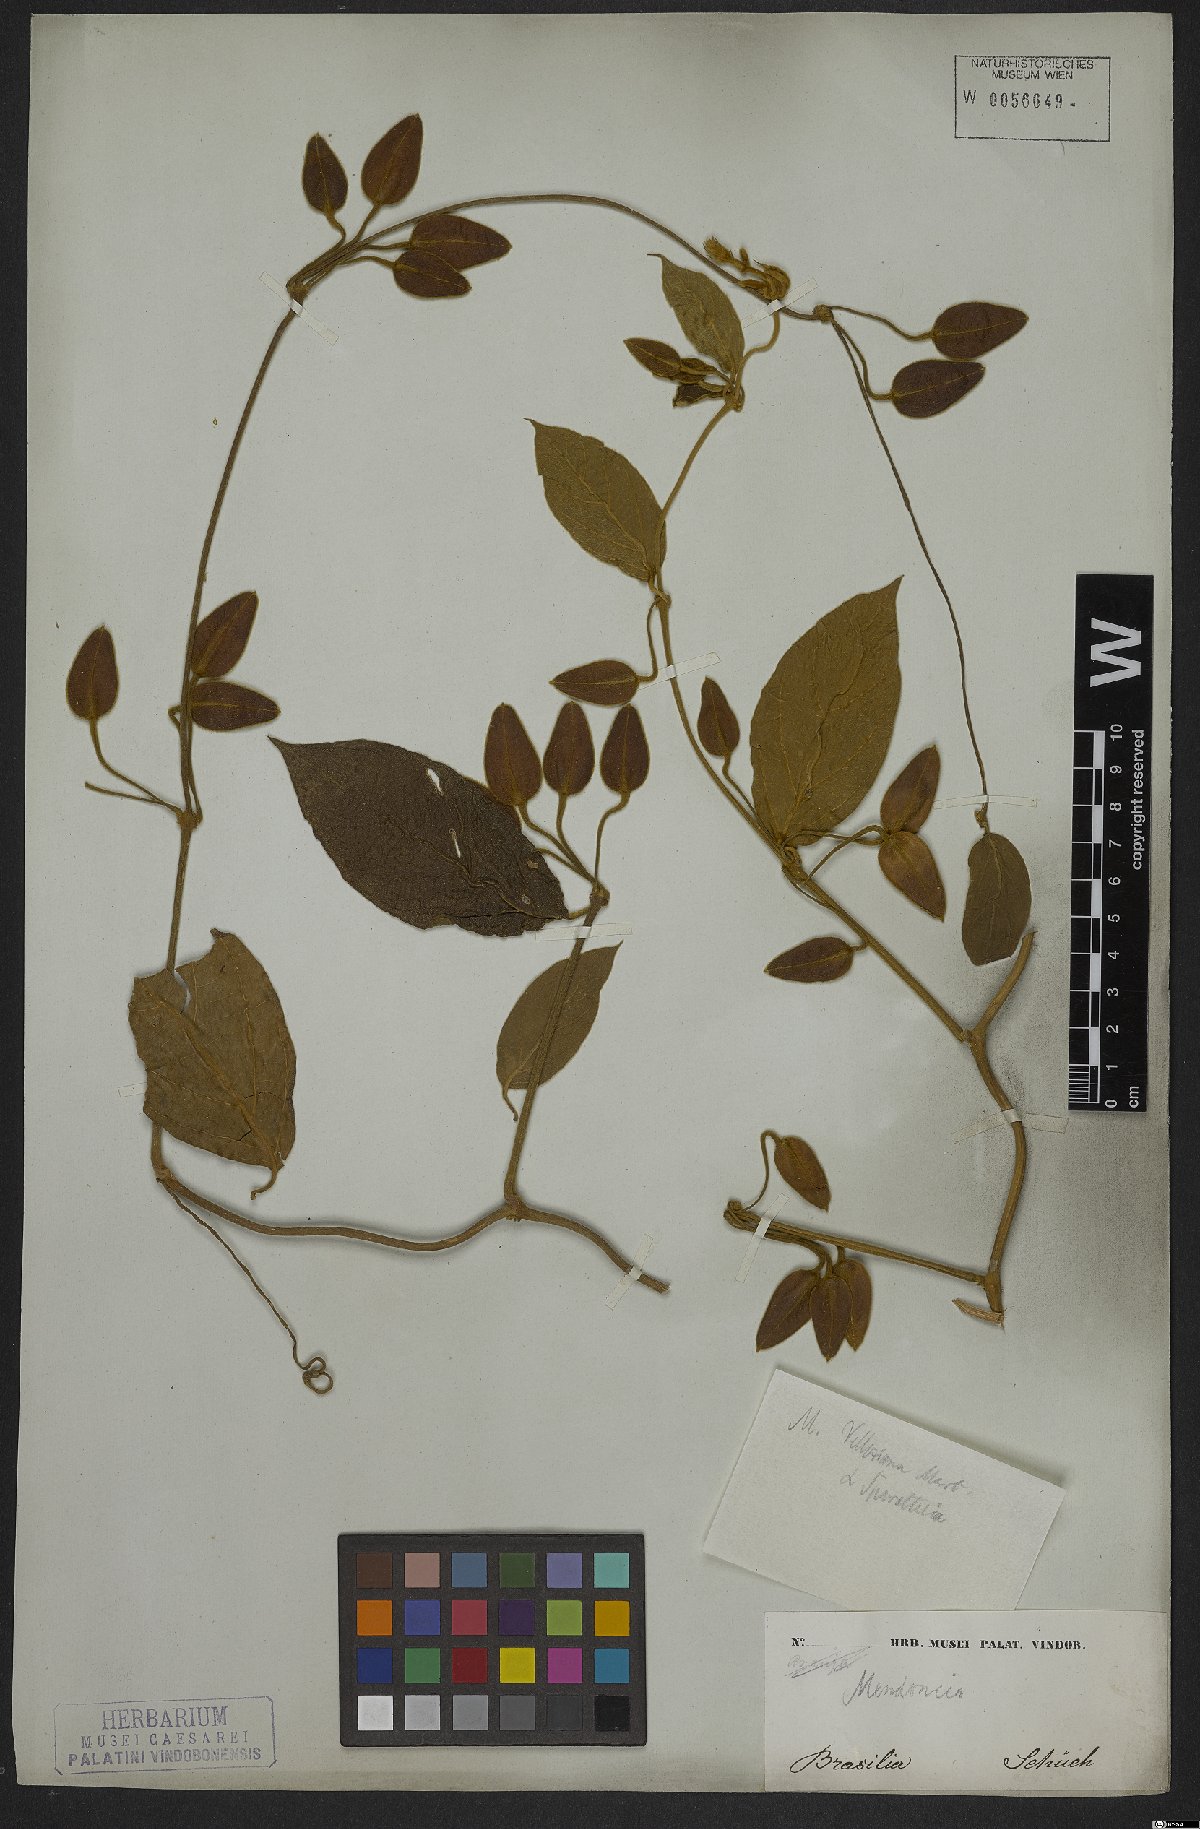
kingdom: Plantae
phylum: Tracheophyta
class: Magnoliopsida
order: Lamiales
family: Acanthaceae
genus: Mendoncia
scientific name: Mendoncia coccinea
